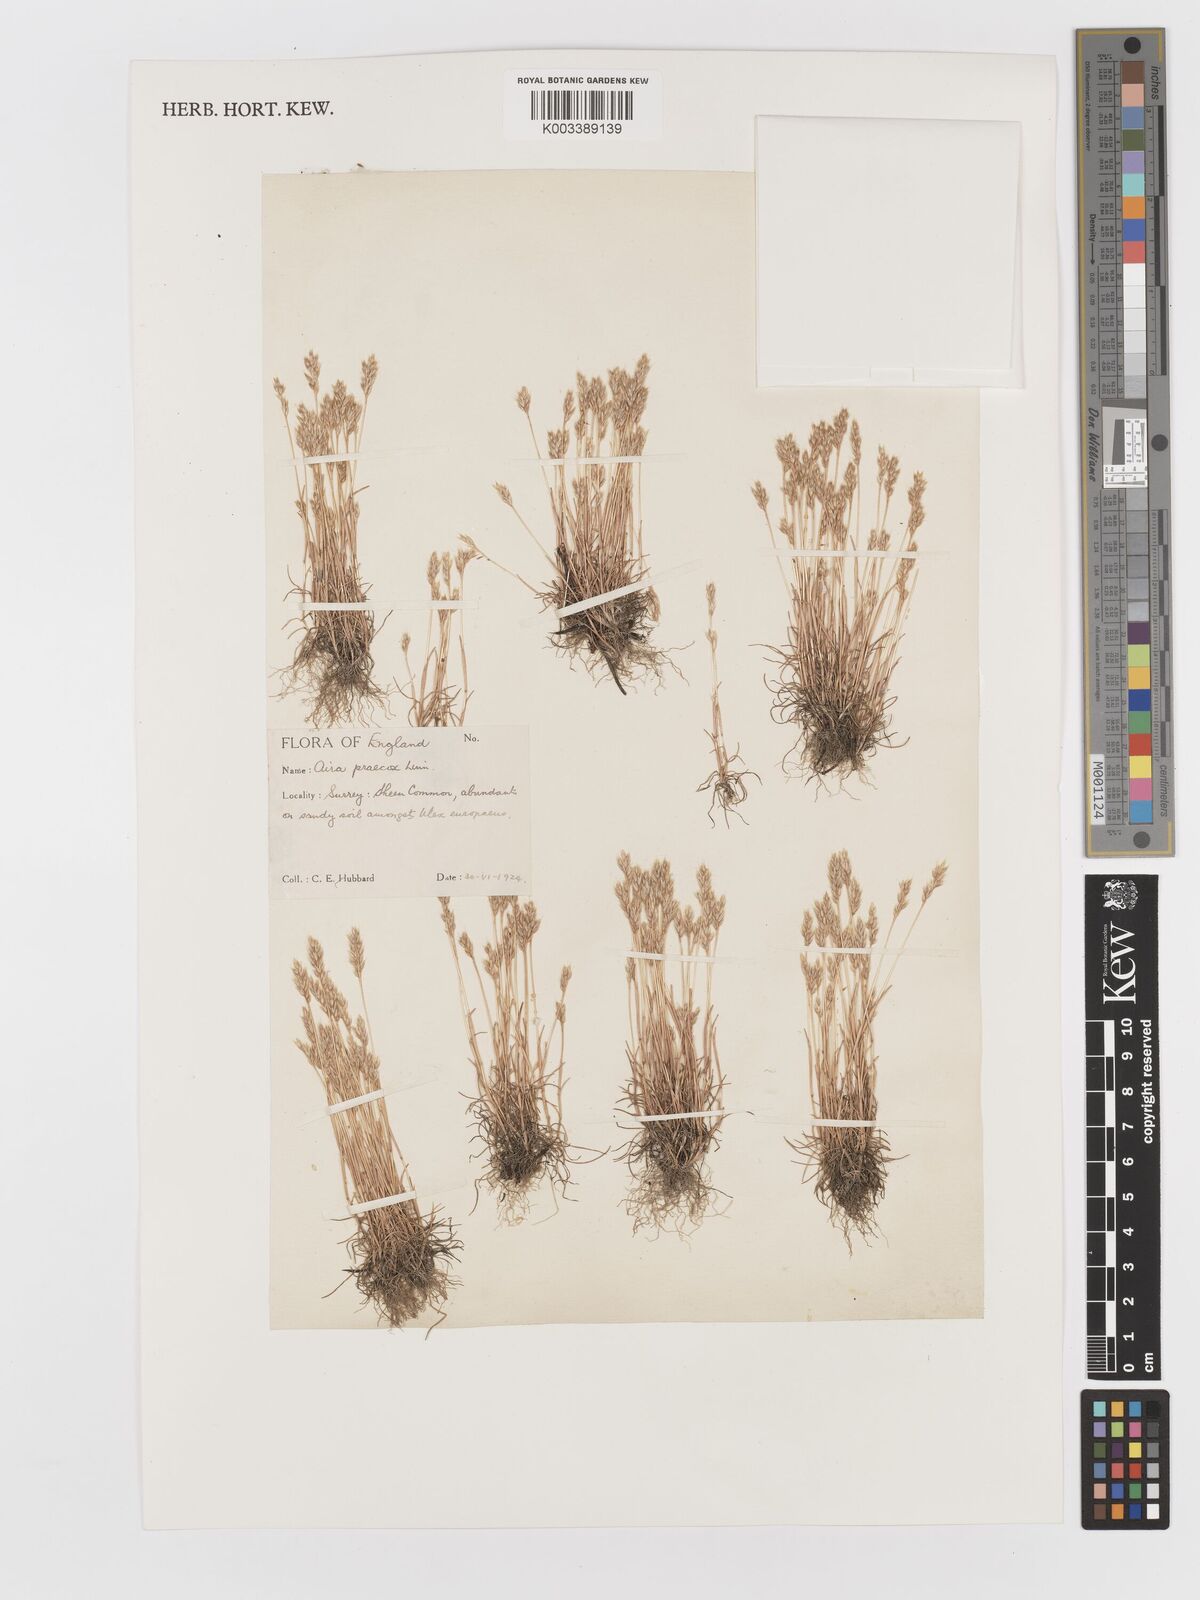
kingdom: Plantae
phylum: Tracheophyta
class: Liliopsida
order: Poales
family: Poaceae
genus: Aira
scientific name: Aira praecox
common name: Early hair-grass
